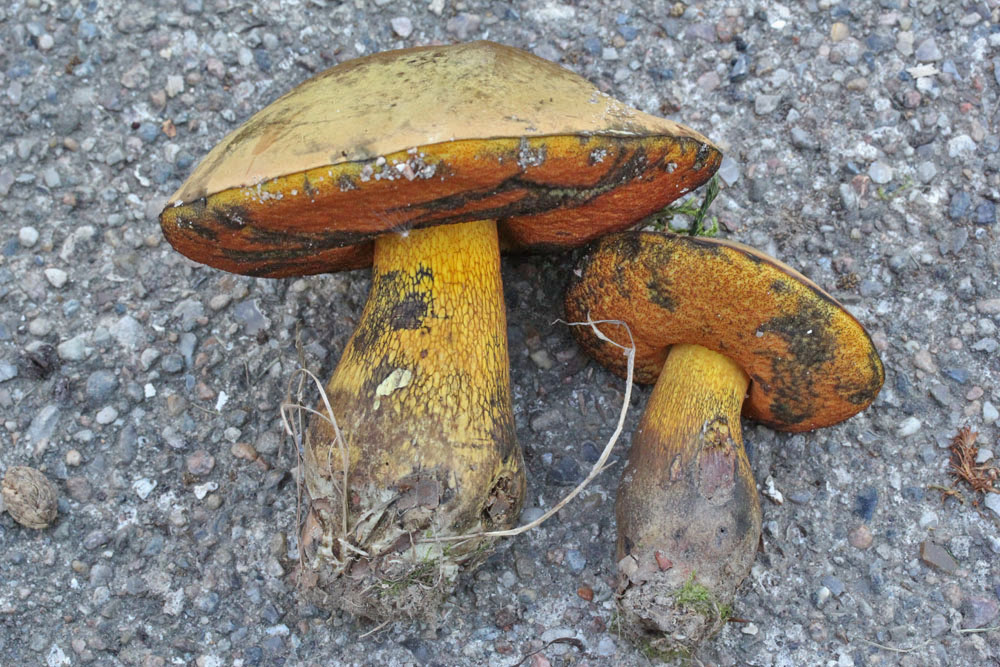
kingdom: Fungi
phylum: Basidiomycota
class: Agaricomycetes
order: Boletales
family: Boletaceae
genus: Suillellus
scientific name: Suillellus luridus
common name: netstokket indigorørhat
